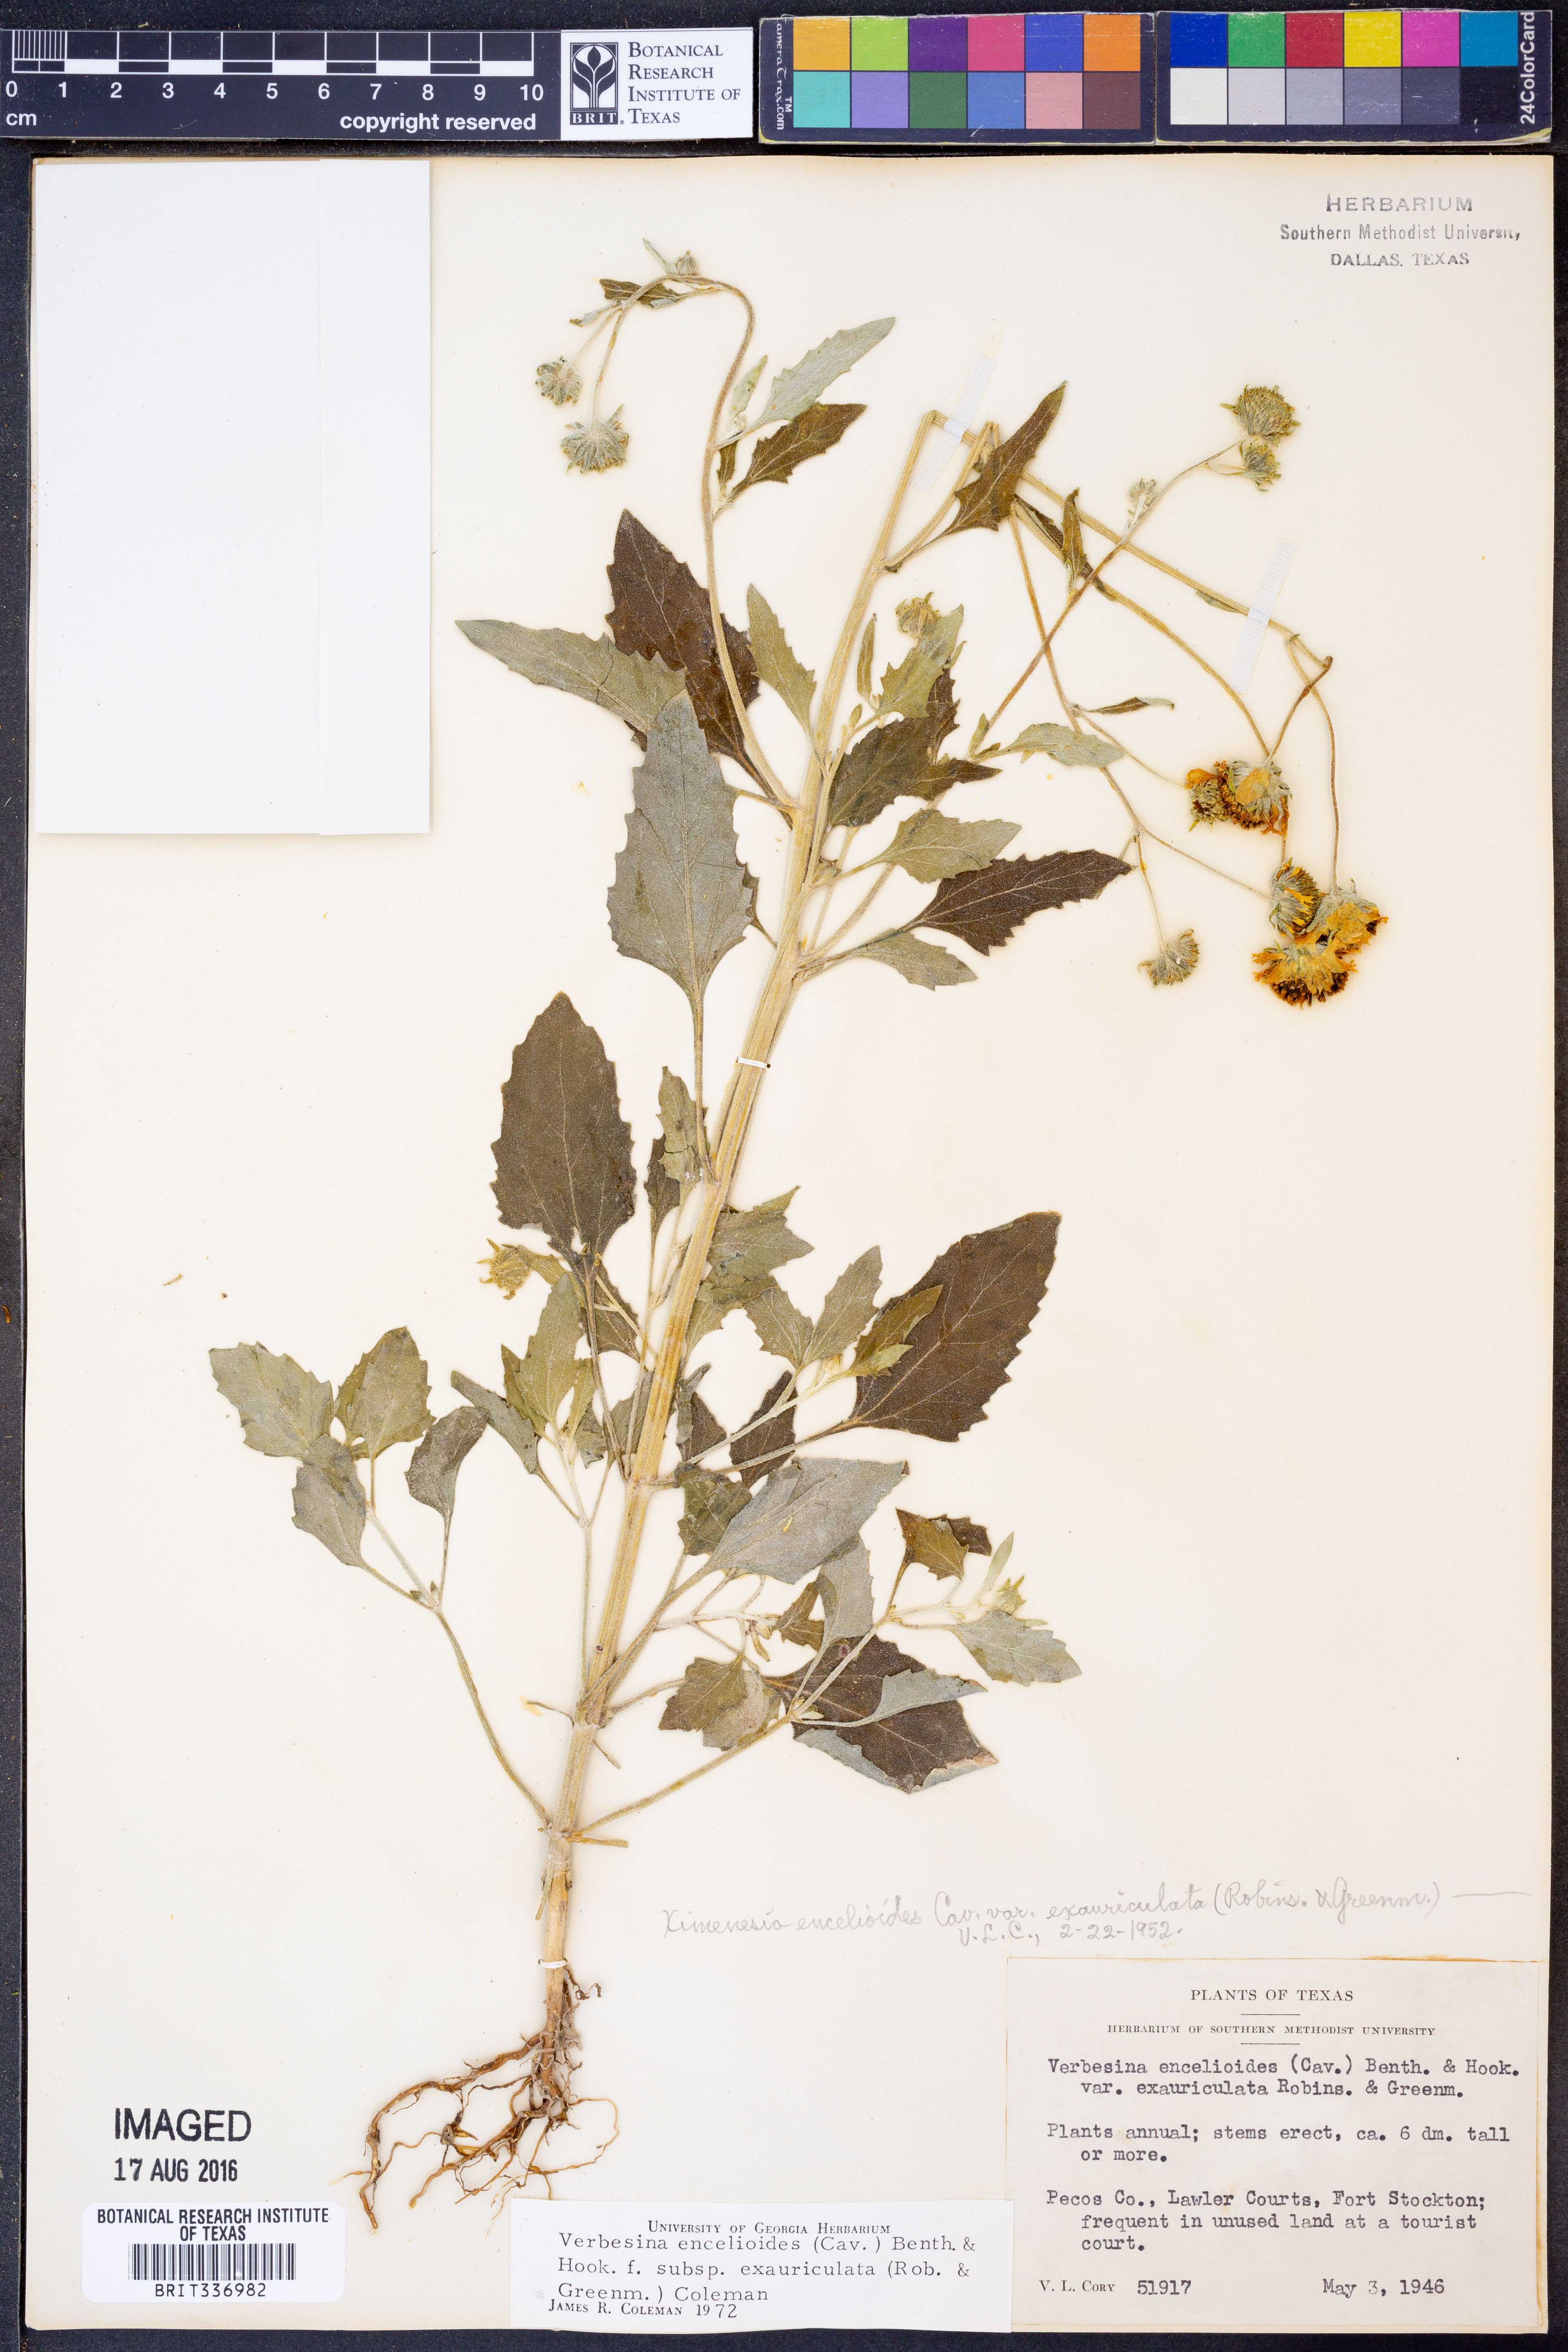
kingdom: Plantae
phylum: Tracheophyta
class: Magnoliopsida
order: Asterales
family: Asteraceae
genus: Verbesina
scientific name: Verbesina encelioides
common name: Golden crownbeard
